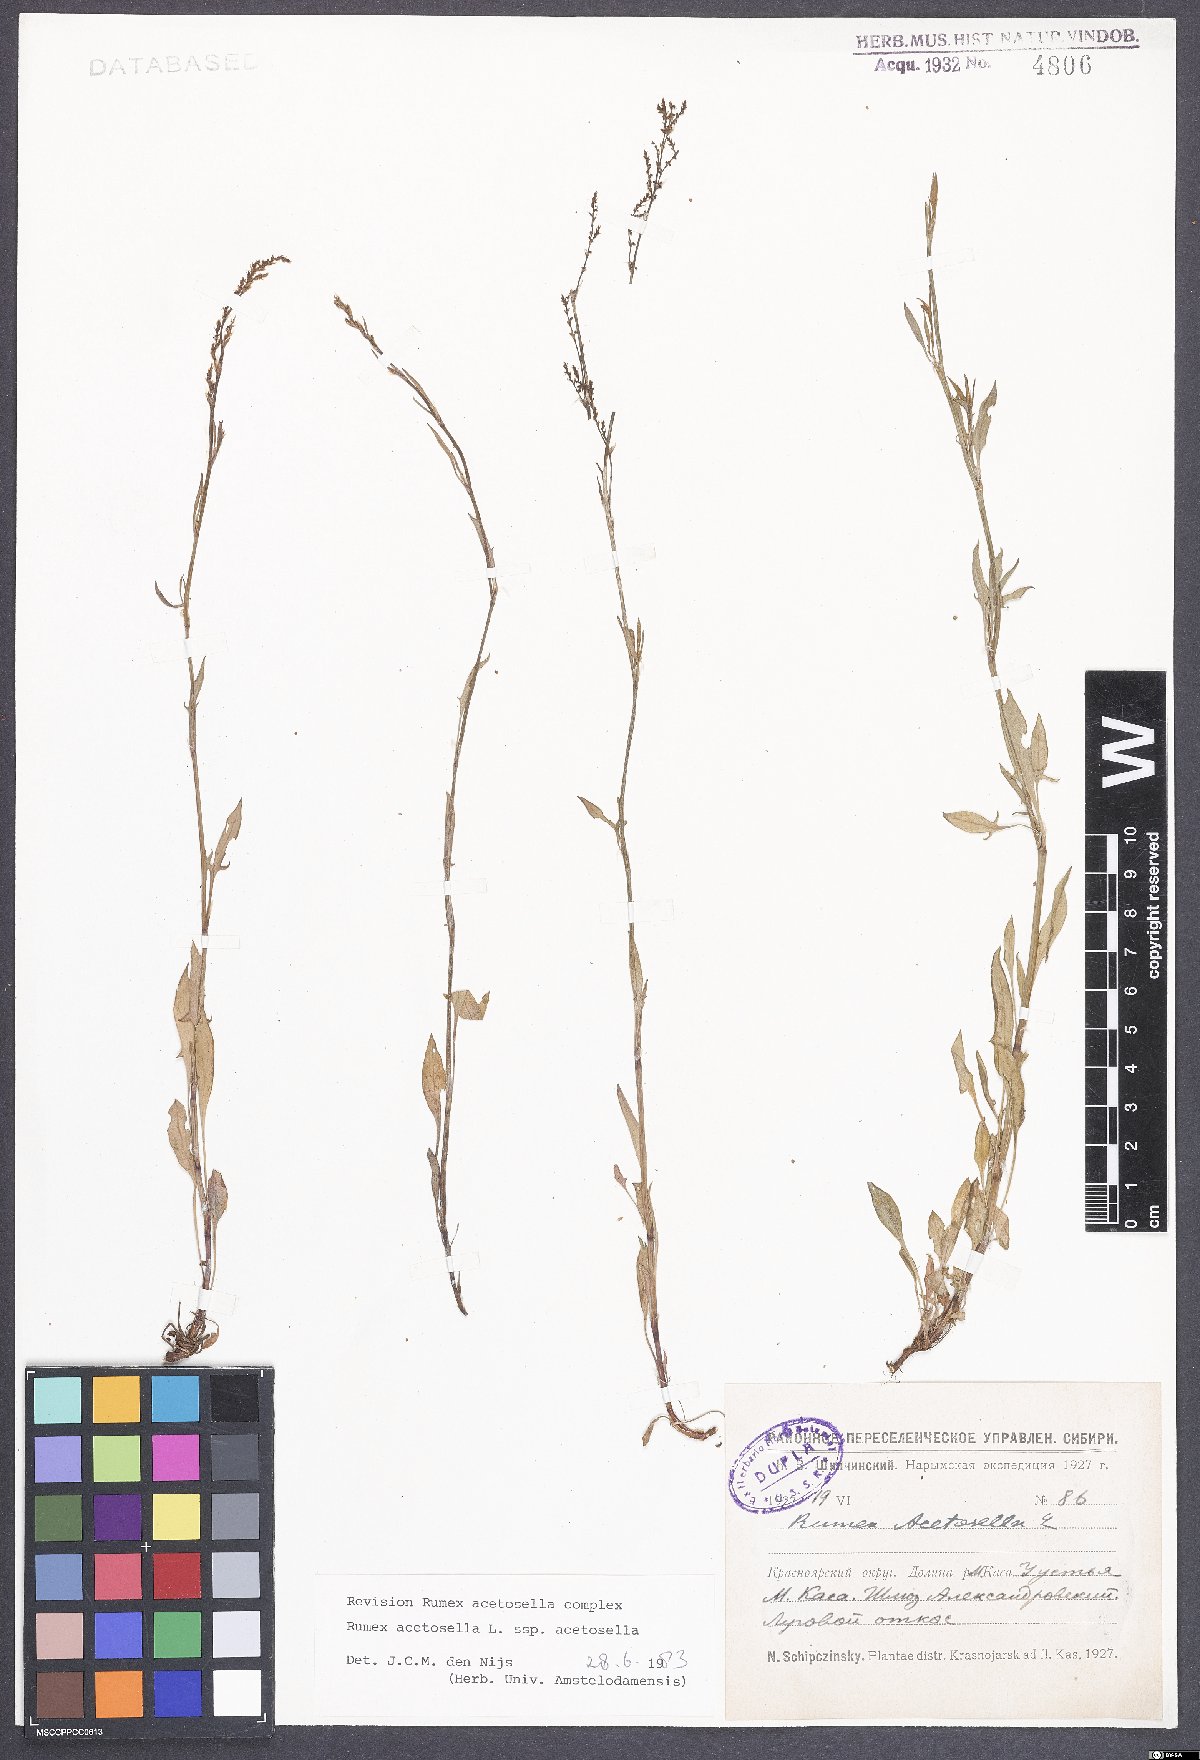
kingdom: Plantae
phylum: Tracheophyta
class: Magnoliopsida
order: Caryophyllales
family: Polygonaceae
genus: Rumex
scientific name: Rumex acetosella
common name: Common sheep sorrel
